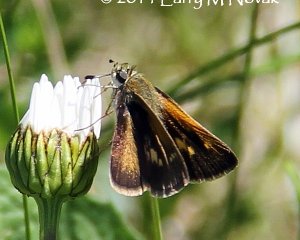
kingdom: Animalia
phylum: Arthropoda
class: Insecta
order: Lepidoptera
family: Hesperiidae
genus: Polites
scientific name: Polites themistocles
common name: Tawny-edged Skipper
